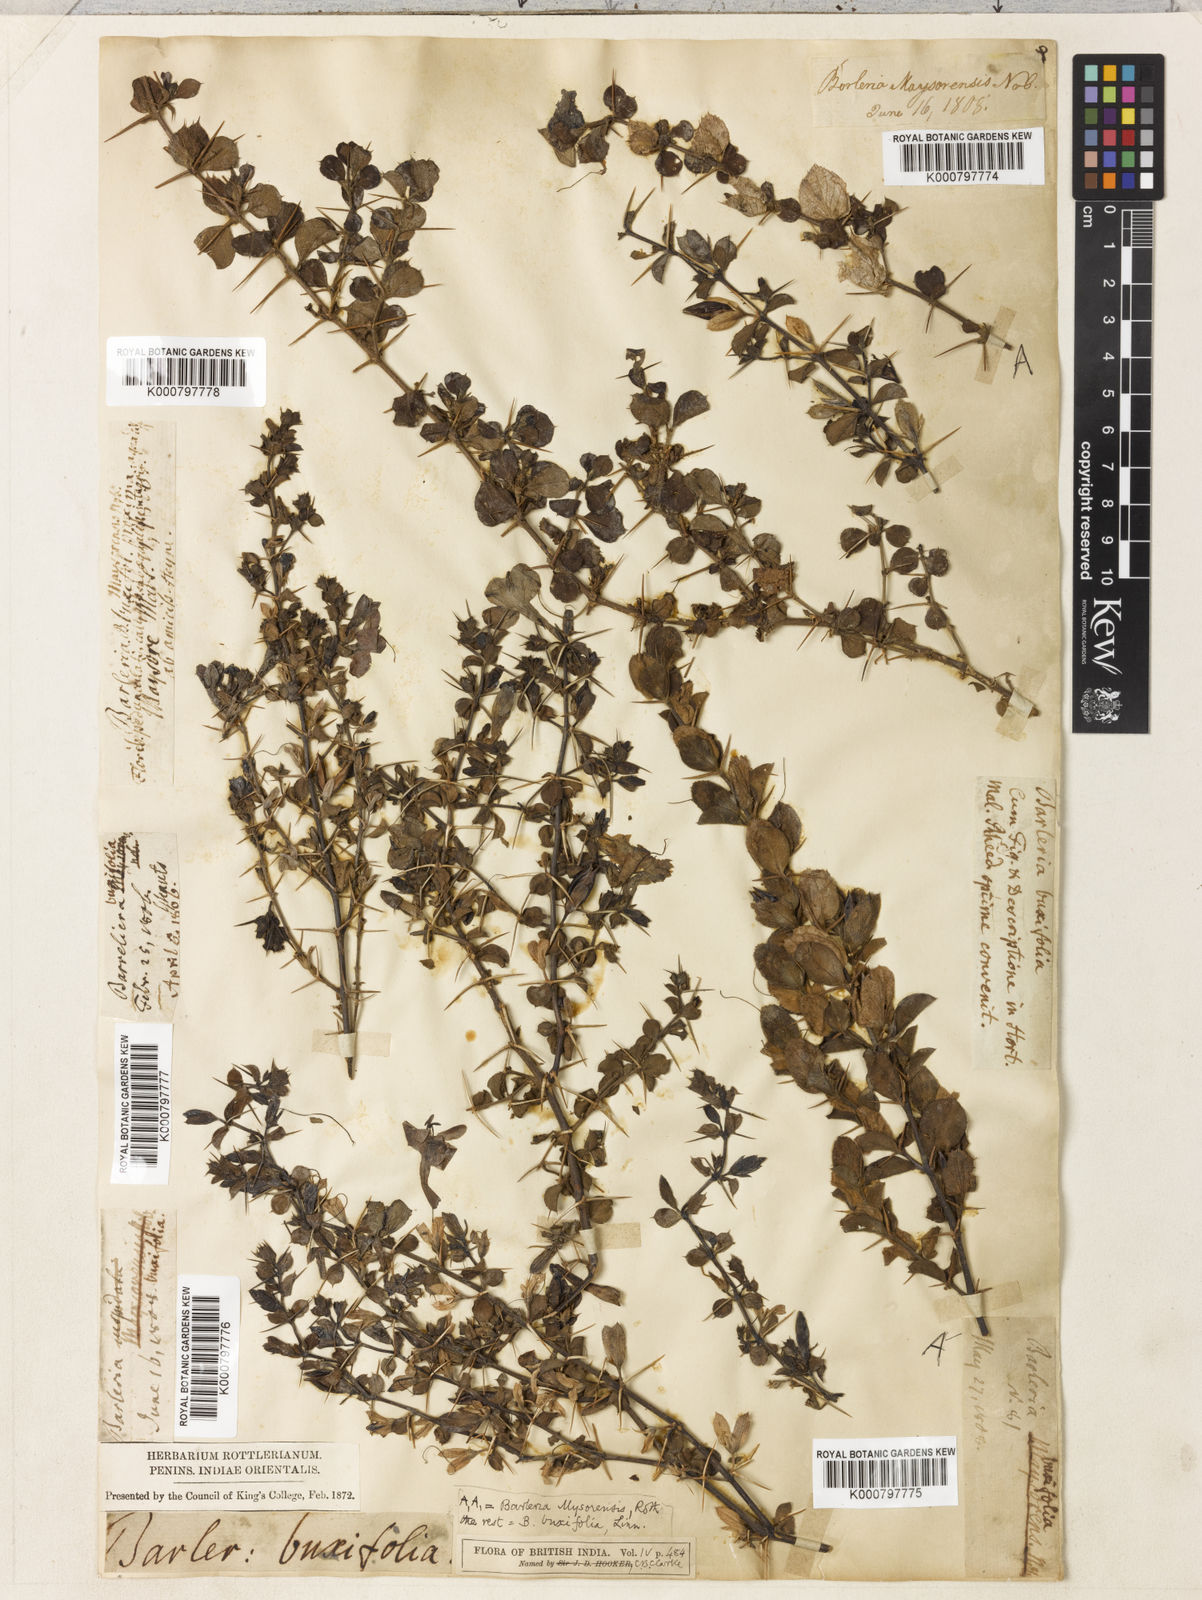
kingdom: Plantae
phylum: Tracheophyta
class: Magnoliopsida
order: Lamiales
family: Acanthaceae
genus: Barleria
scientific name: Barleria mysorensis
